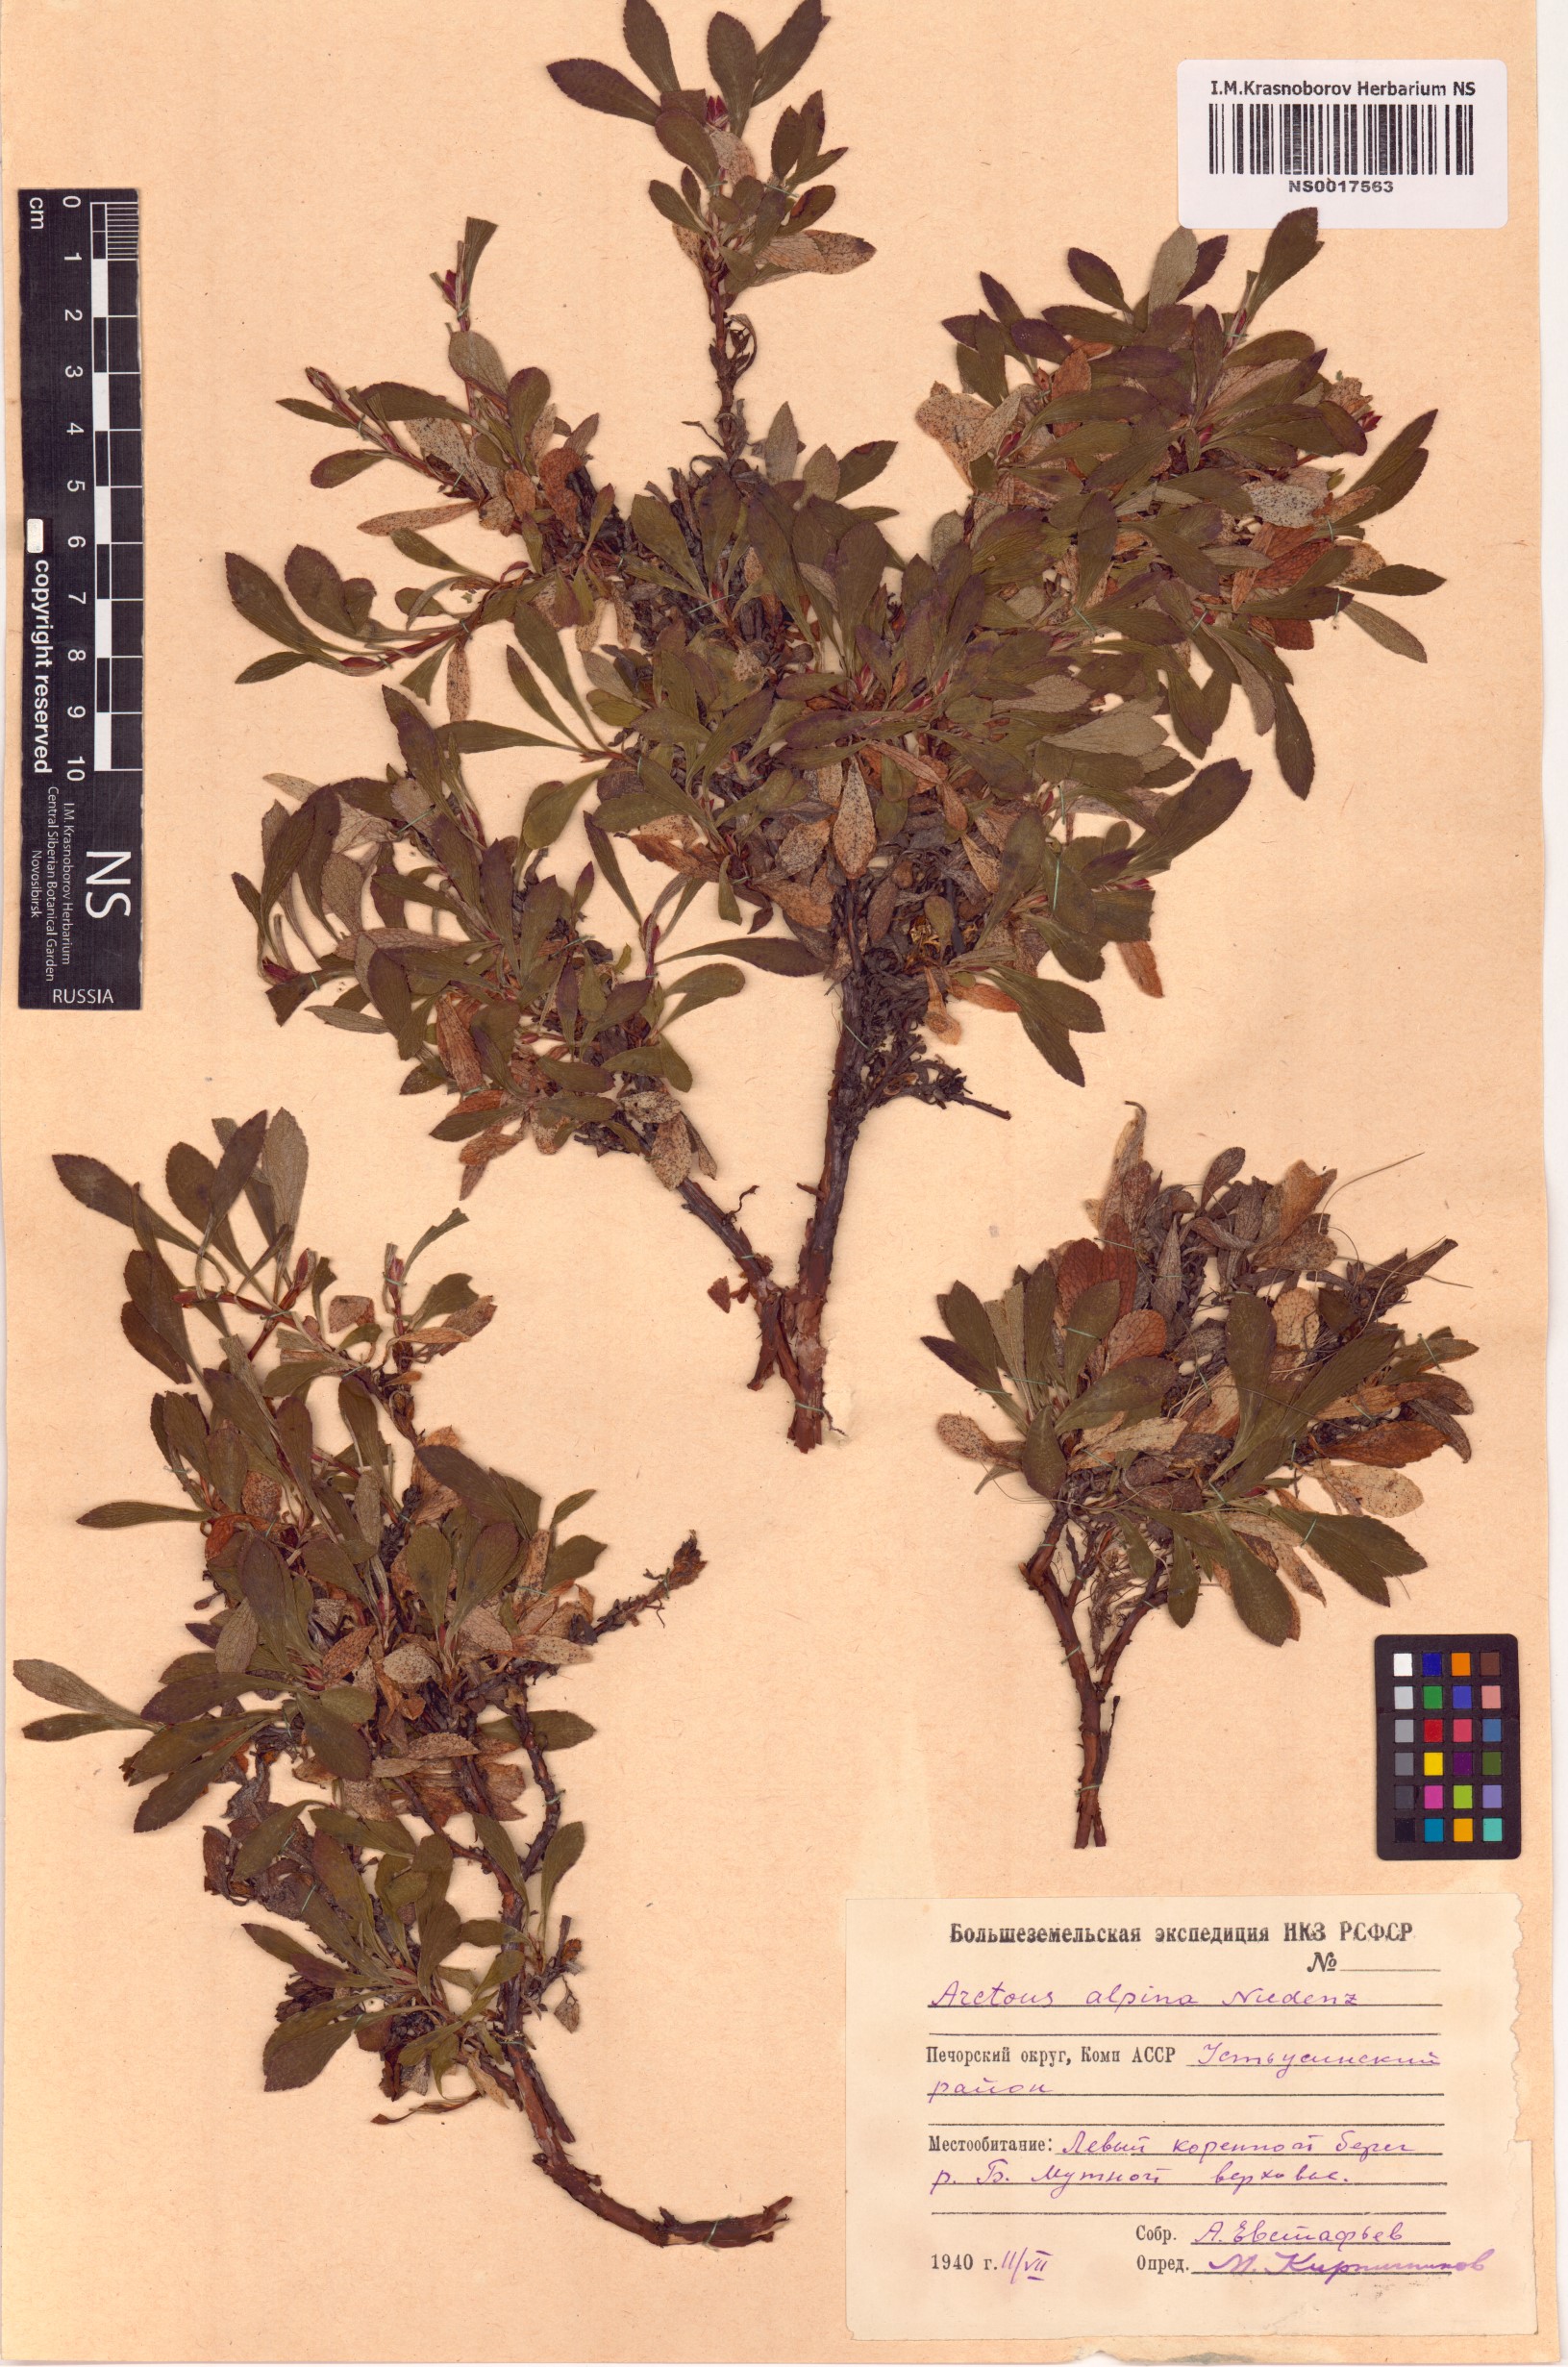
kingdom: Plantae
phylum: Tracheophyta
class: Magnoliopsida
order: Ericales
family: Ericaceae
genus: Arctostaphylos
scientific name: Arctostaphylos alpinus
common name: Alpine bearberry
